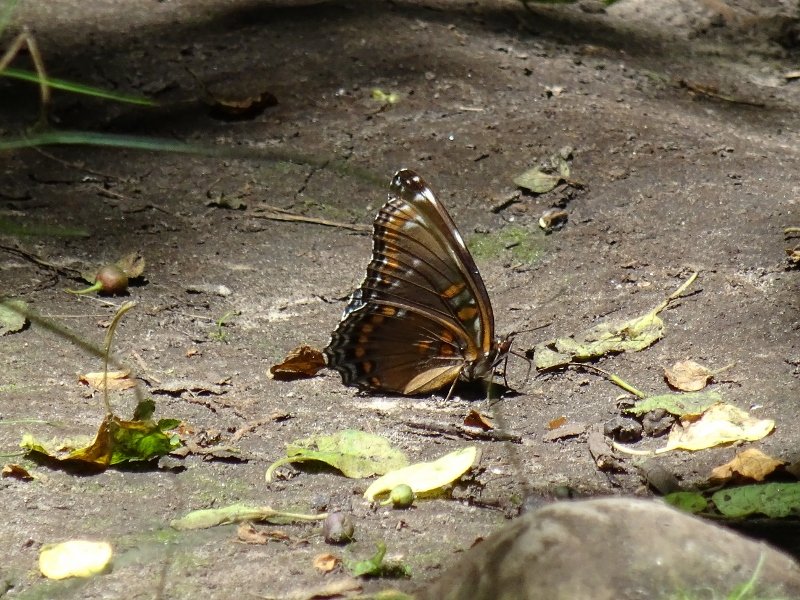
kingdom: Animalia
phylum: Arthropoda
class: Insecta
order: Lepidoptera
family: Nymphalidae
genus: Limenitis
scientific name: Limenitis astyanax
